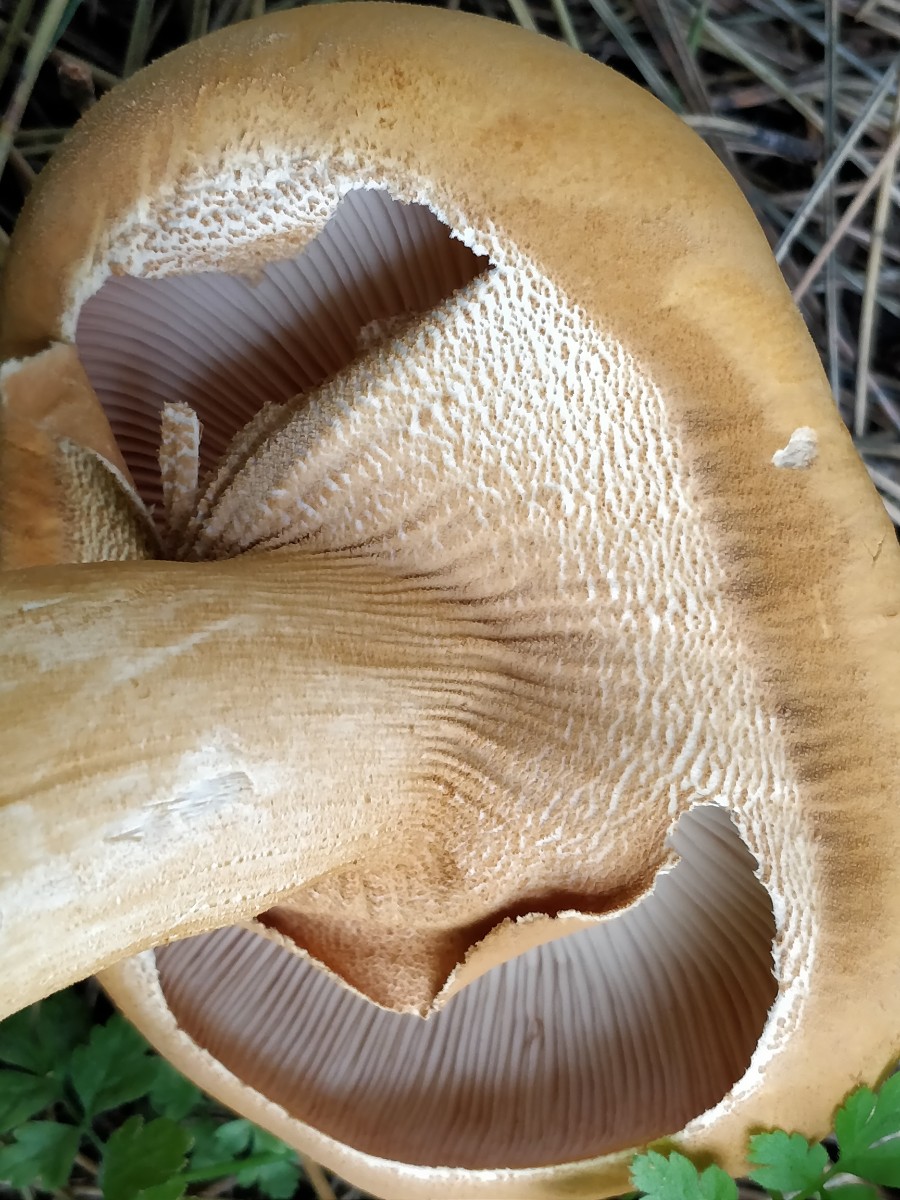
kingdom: Fungi
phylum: Basidiomycota
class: Agaricomycetes
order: Agaricales
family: Tricholomataceae
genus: Phaeolepiota
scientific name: Phaeolepiota aurea
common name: gyldenhat
